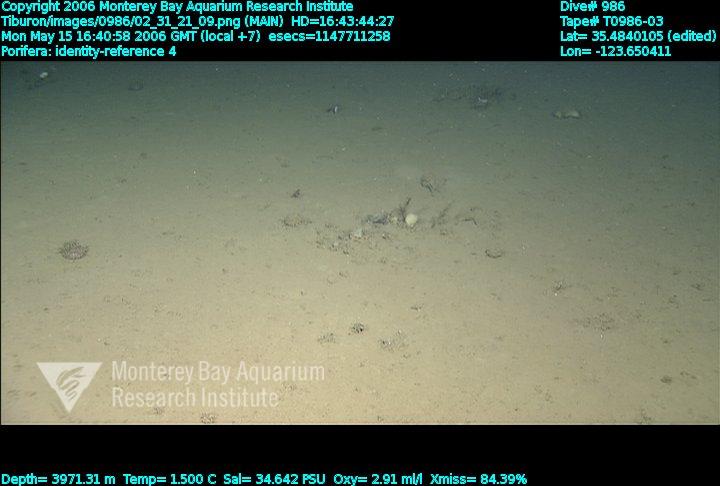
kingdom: Animalia
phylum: Porifera
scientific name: Porifera
